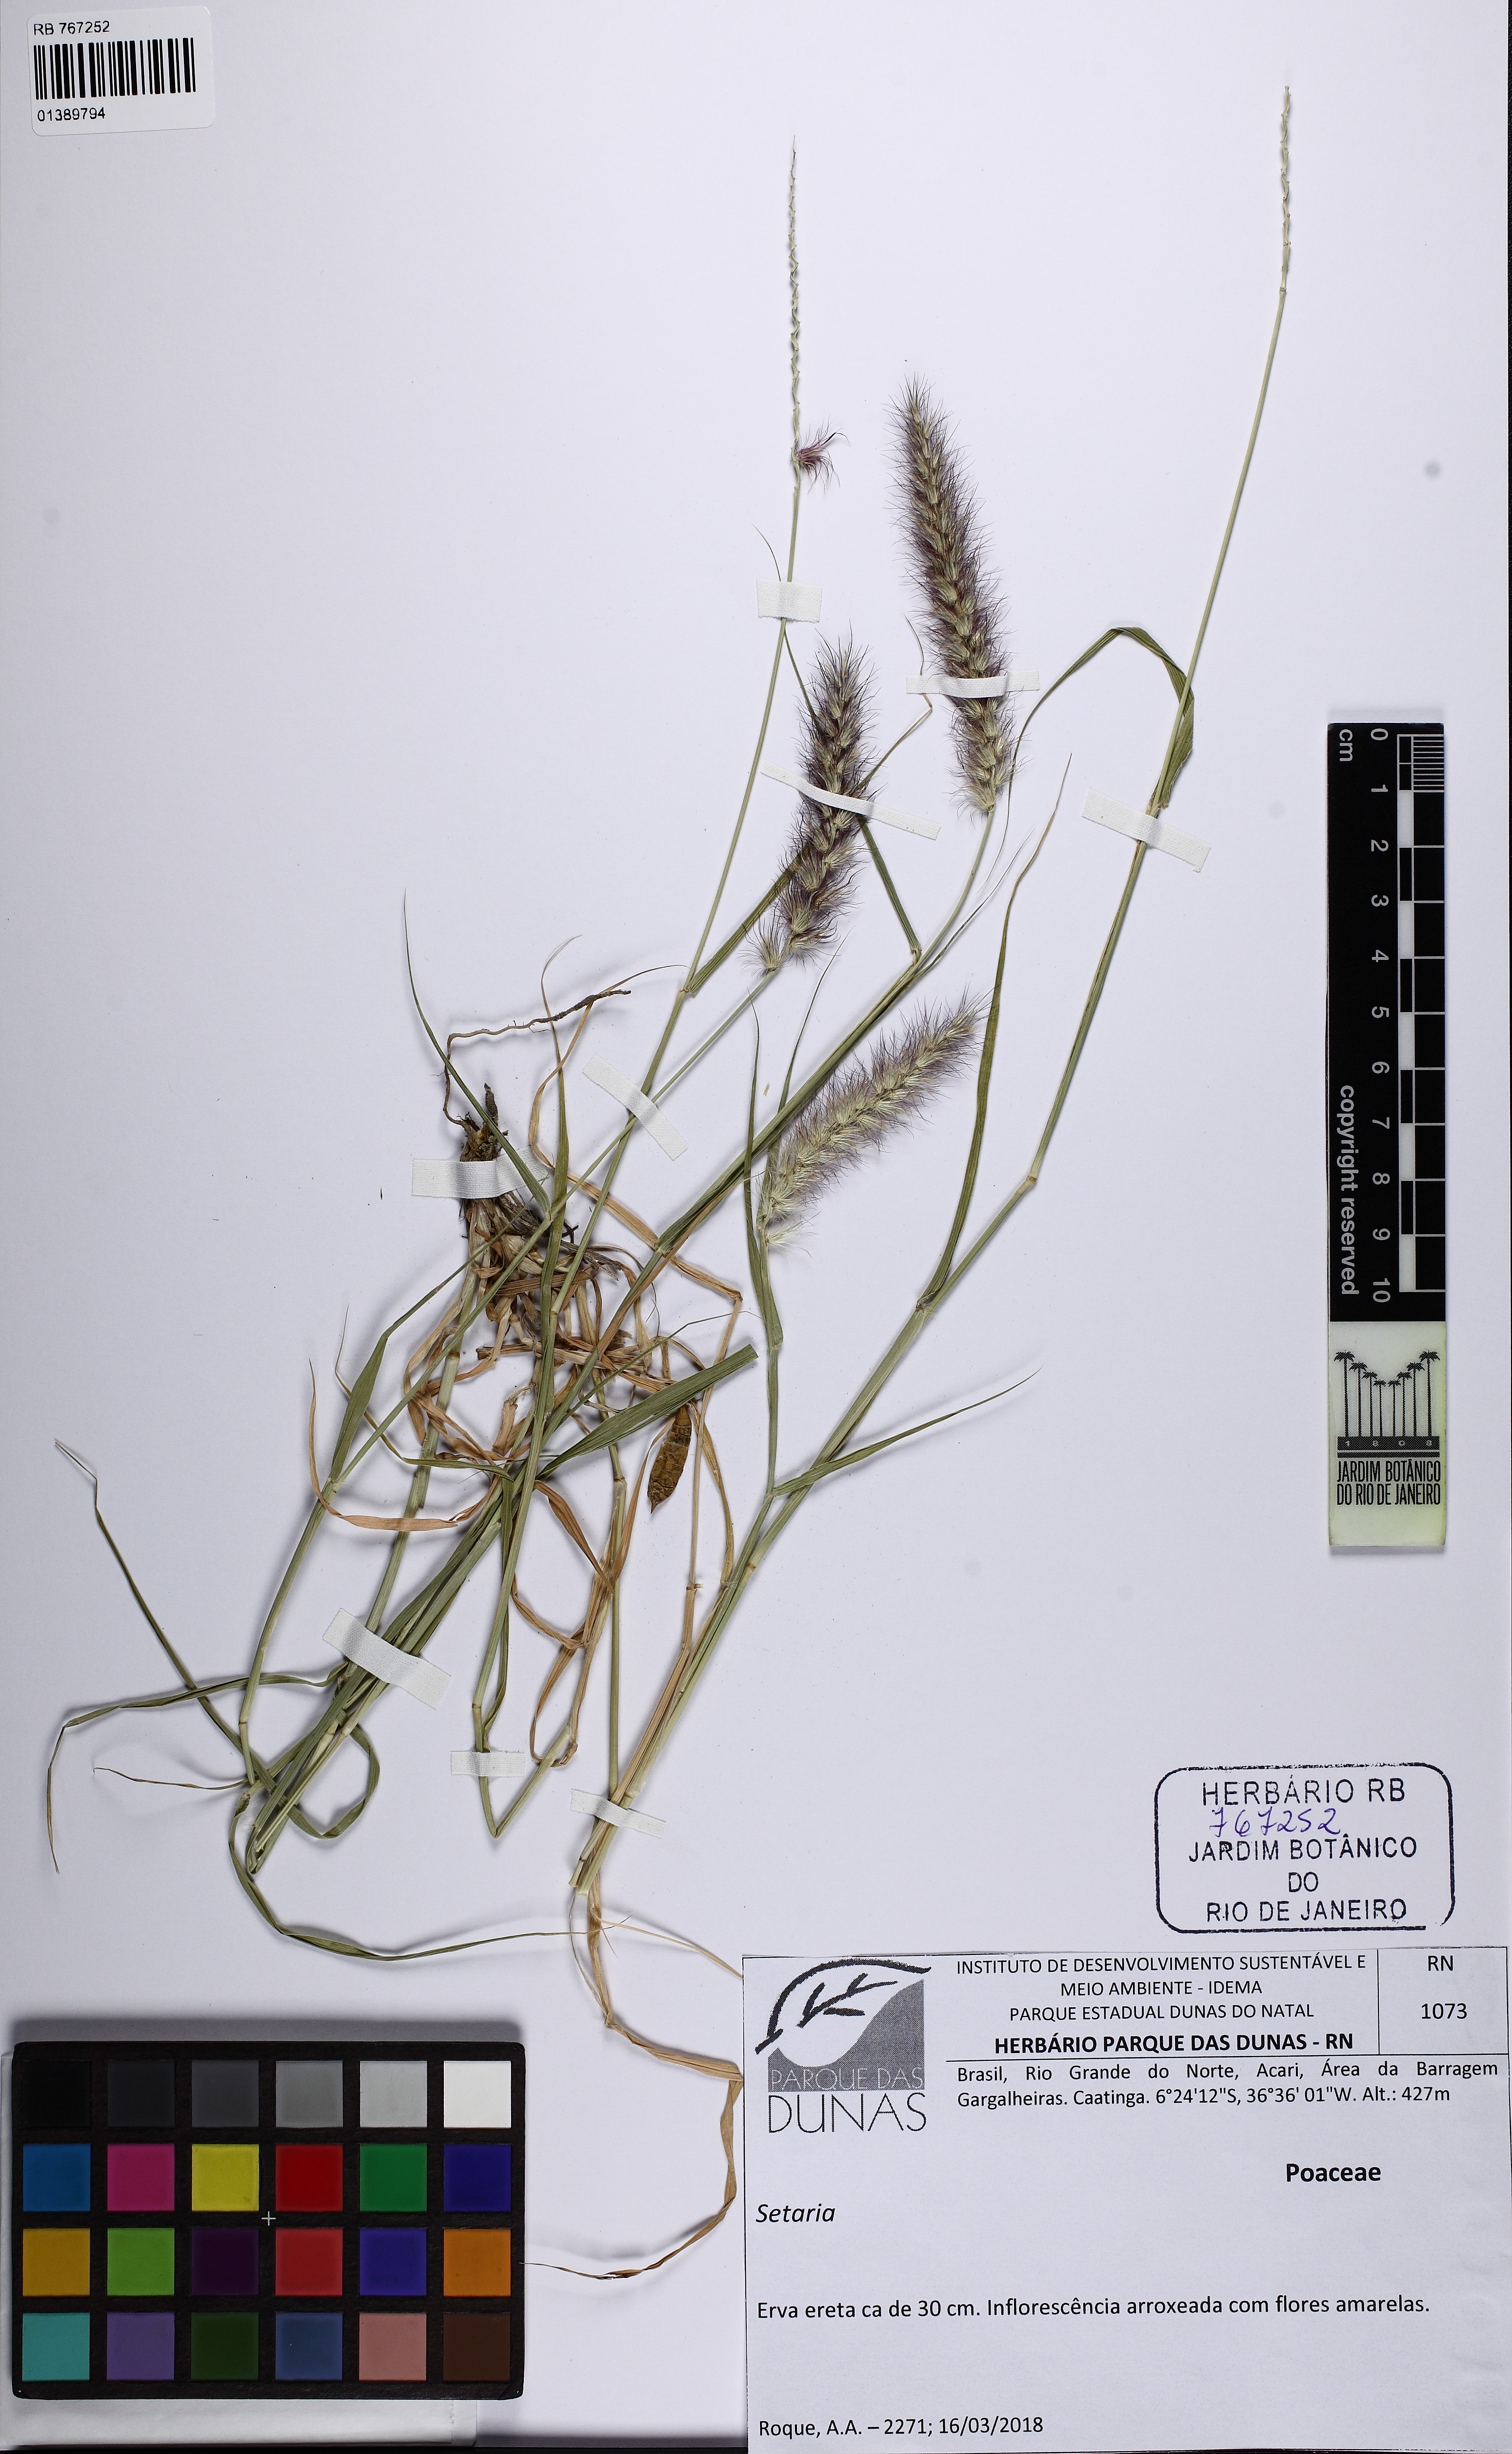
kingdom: Plantae
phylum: Tracheophyta
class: Liliopsida
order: Poales
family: Poaceae
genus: Setaria
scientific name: Setaria
